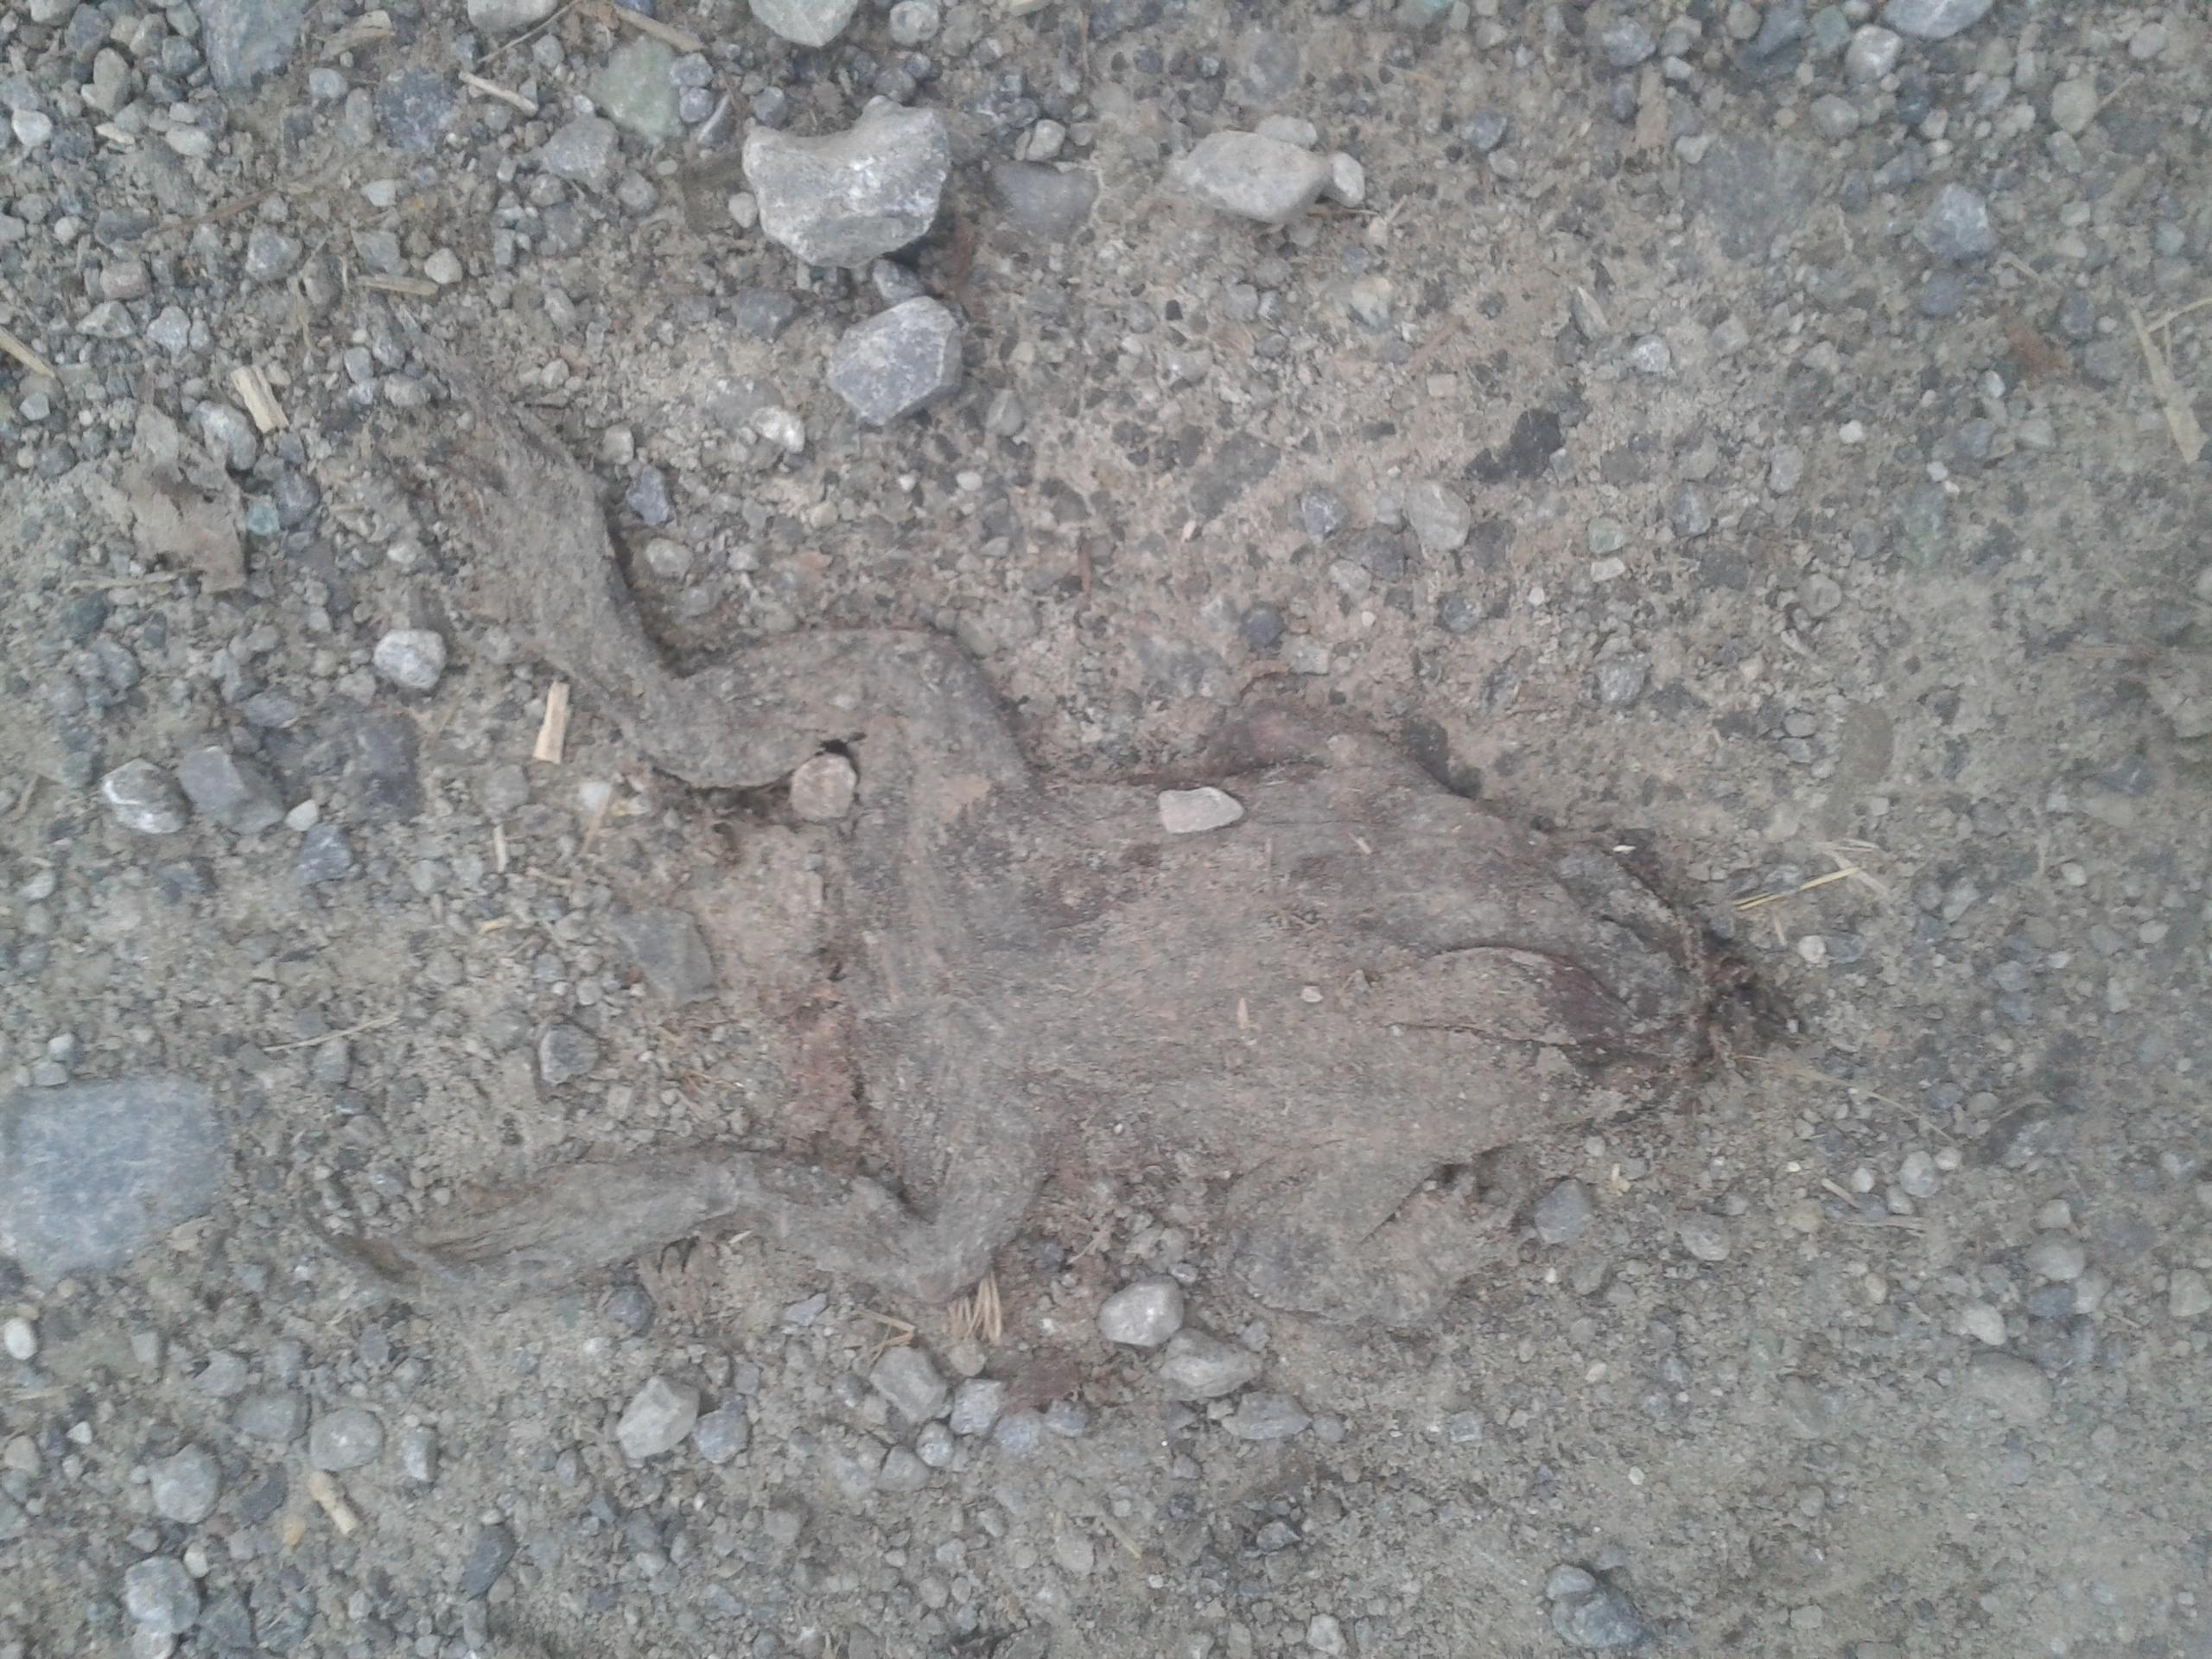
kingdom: Animalia
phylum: Chordata
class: Amphibia
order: Anura
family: Bufonidae
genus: Bufo
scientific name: Bufo bufo
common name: Common toad
